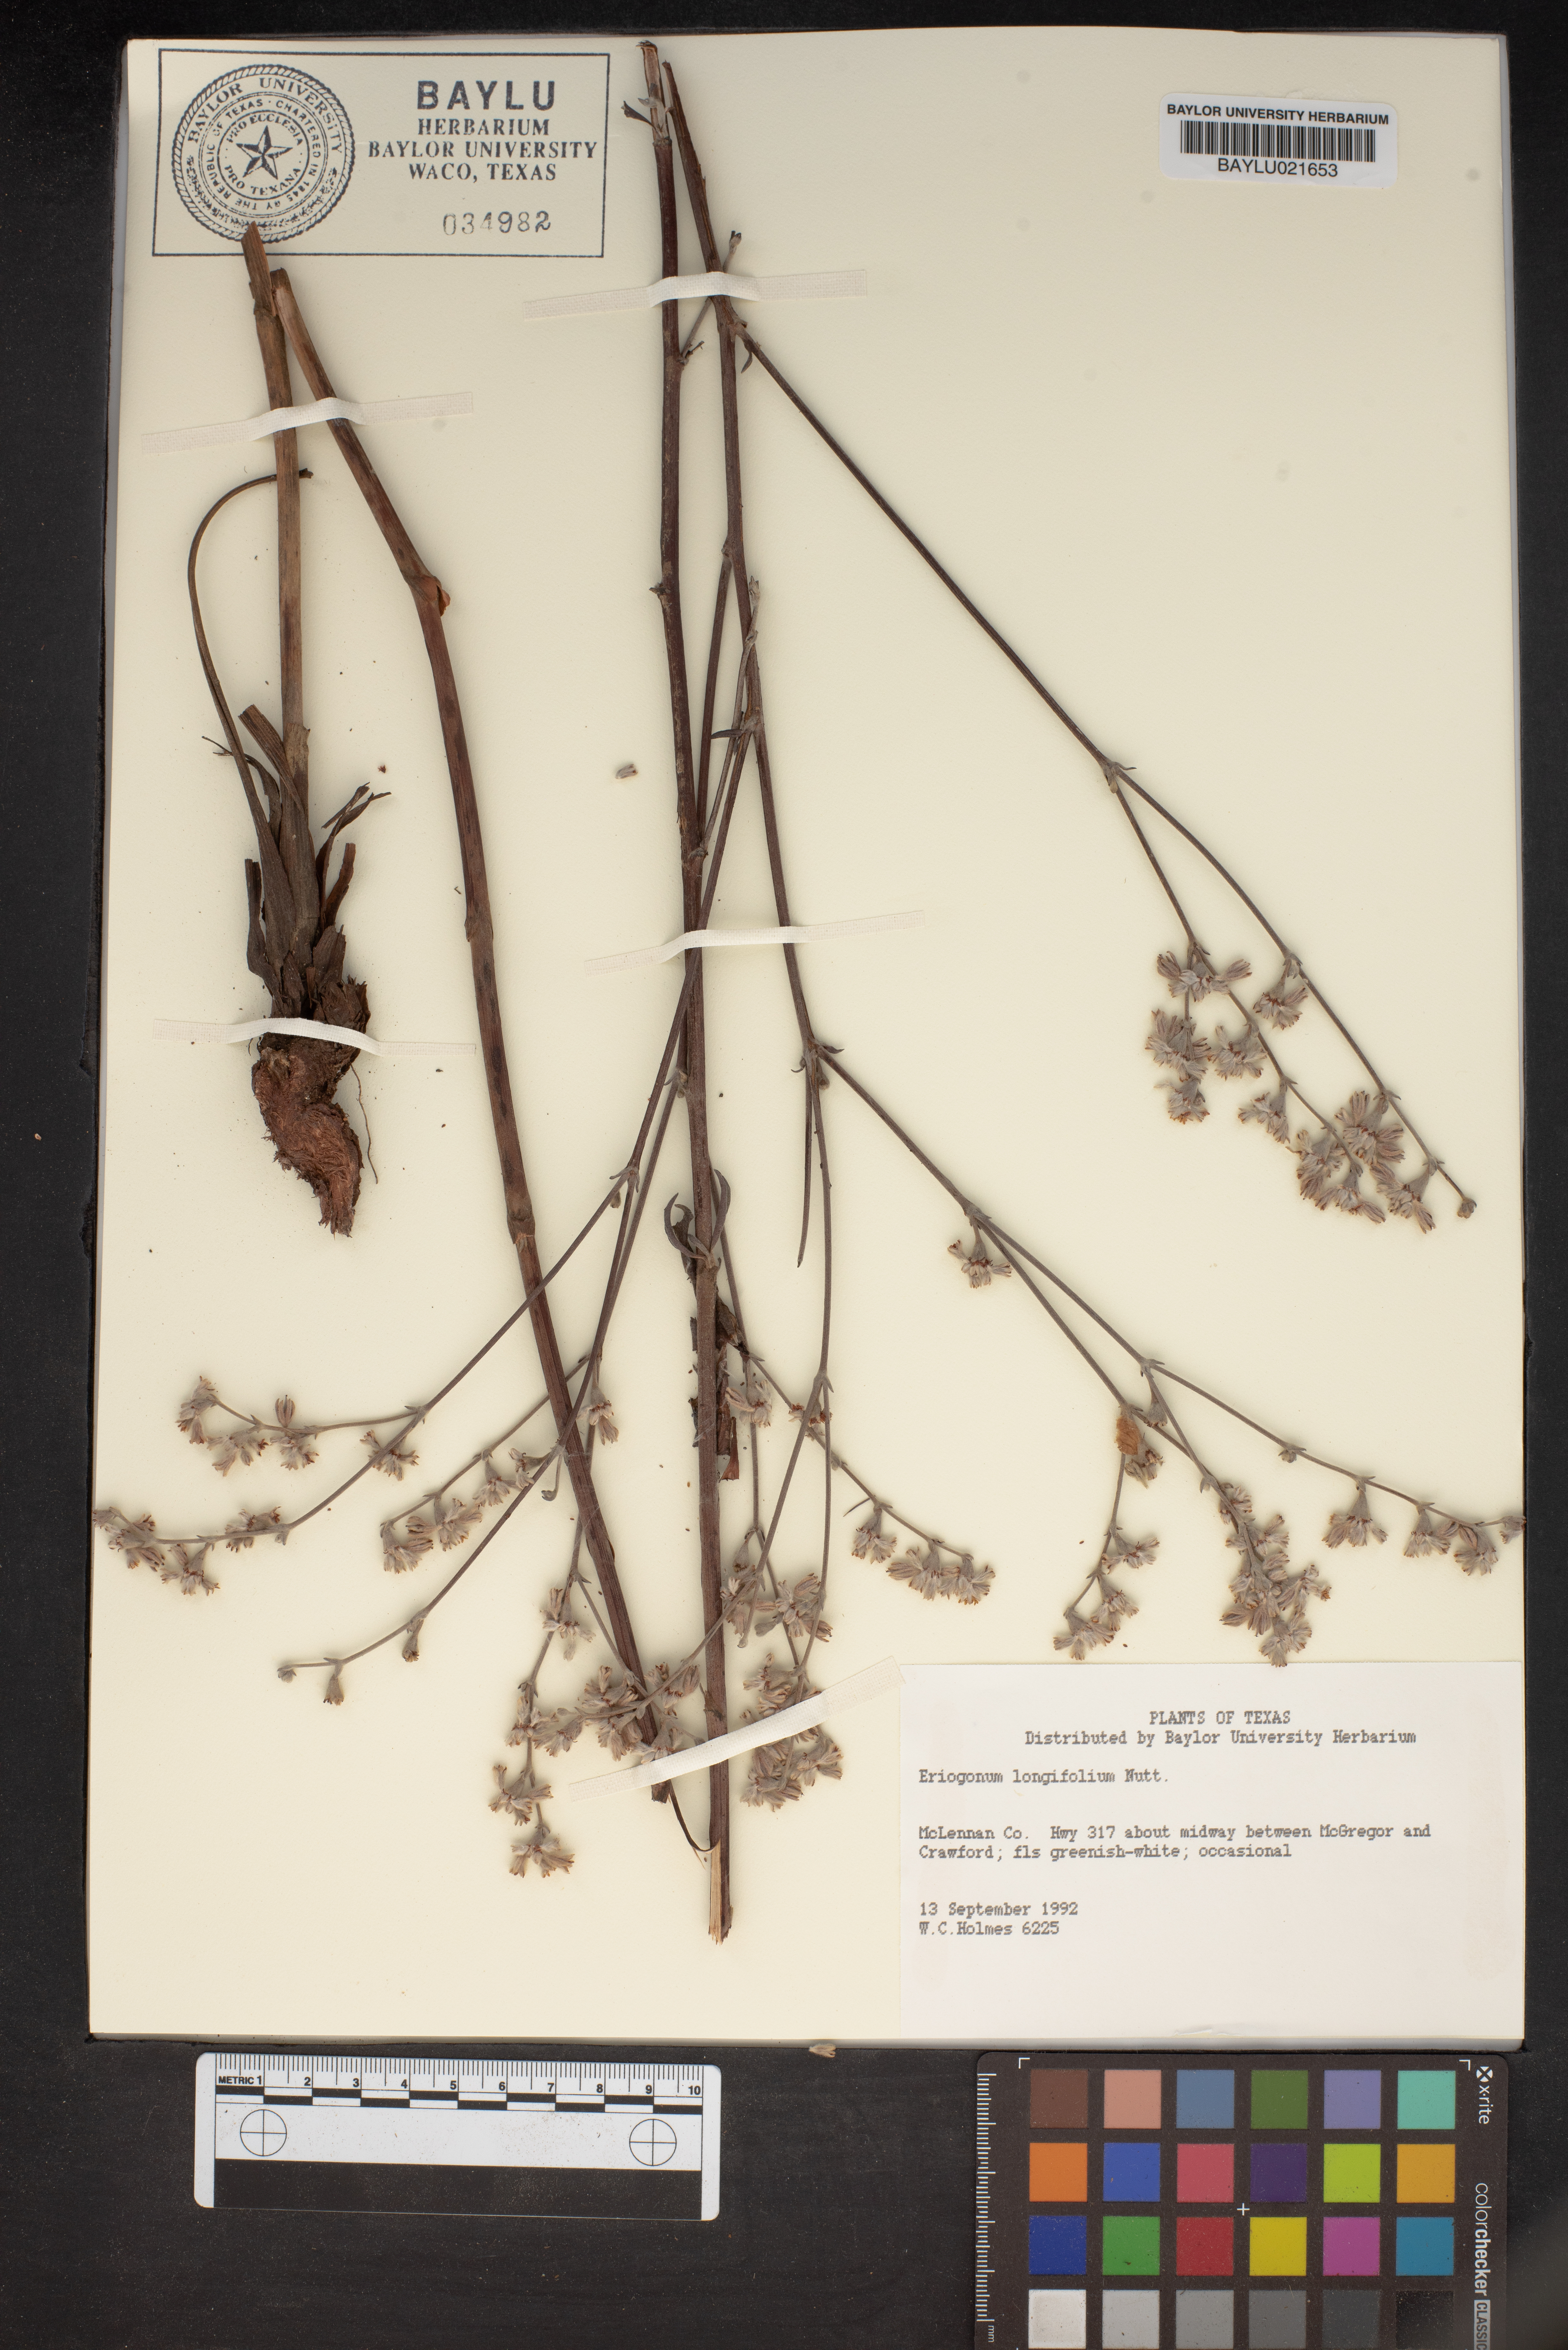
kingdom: Plantae
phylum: Tracheophyta
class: Magnoliopsida
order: Caryophyllales
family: Polygonaceae
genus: Eriogonum
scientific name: Eriogonum longifolium
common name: Longleaf wild buckwheat
